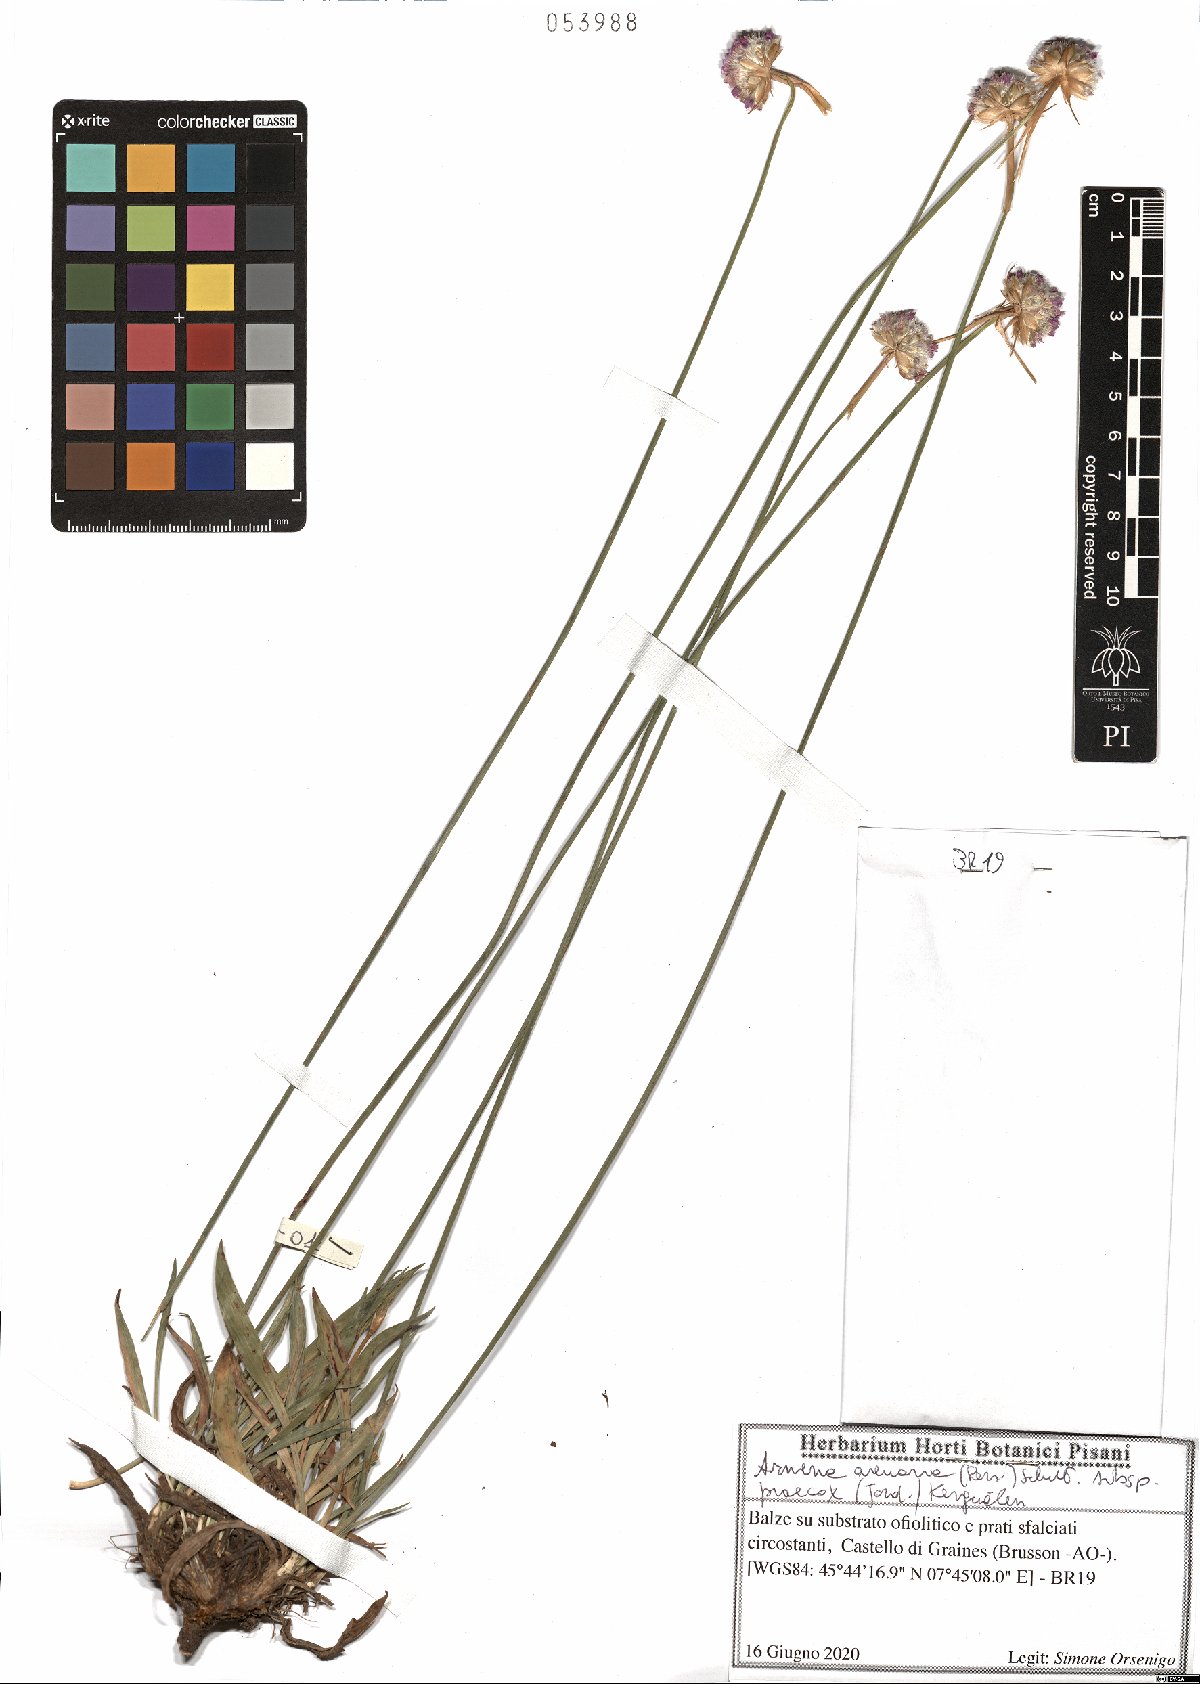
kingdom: Plantae
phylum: Tracheophyta
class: Magnoliopsida
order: Caryophyllales
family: Plumbaginaceae
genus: Armeria
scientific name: Armeria arenaria
